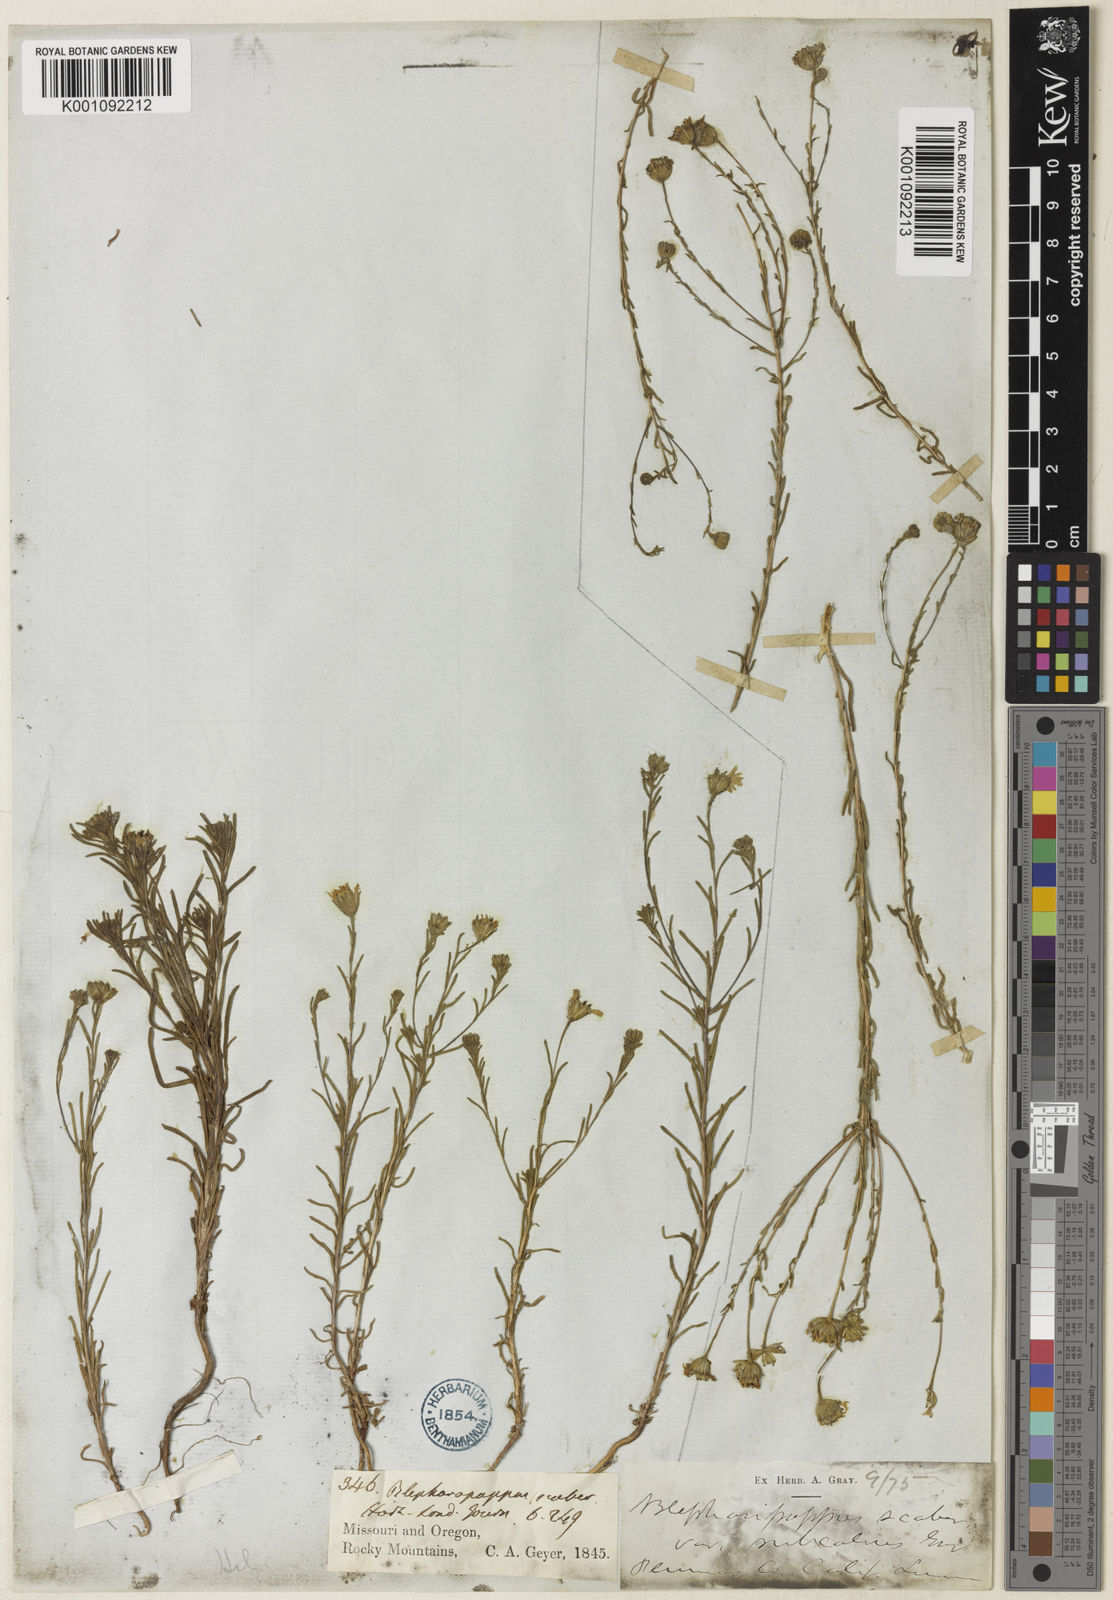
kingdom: Plantae
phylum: Tracheophyta
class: Magnoliopsida
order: Asterales
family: Asteraceae
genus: Blepharipappus
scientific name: Blepharipappus scaber
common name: Rough blepharipappus
